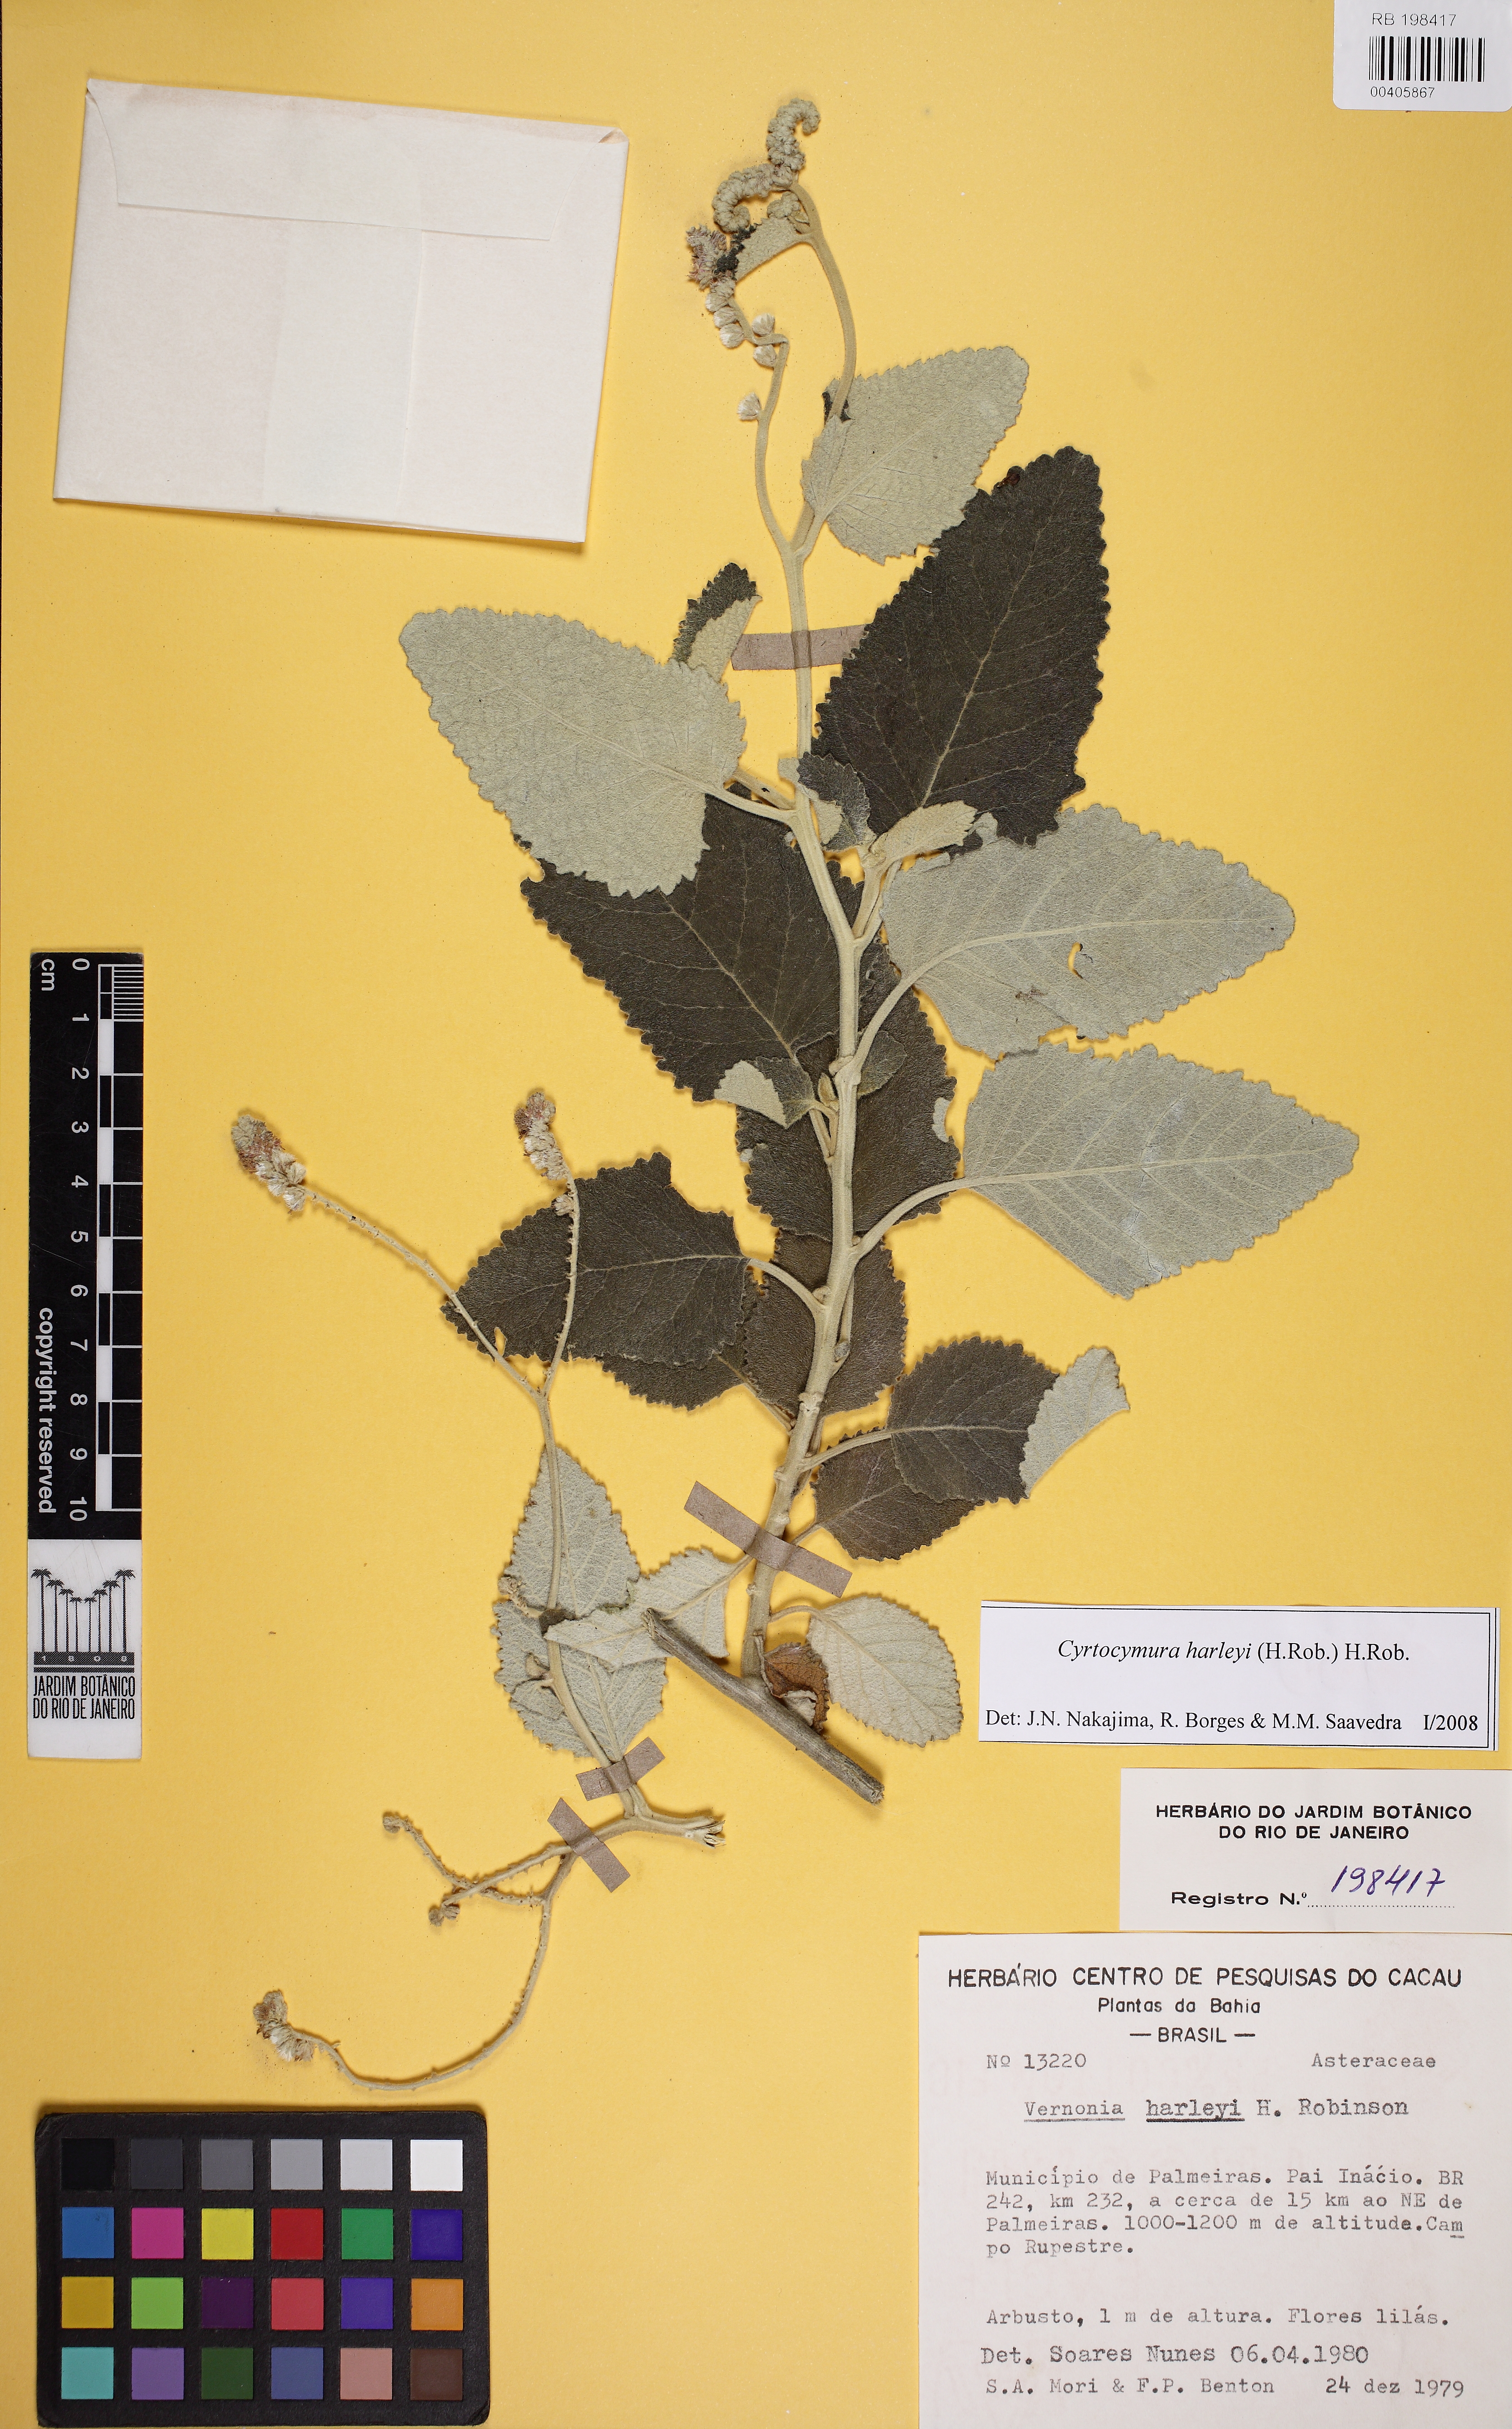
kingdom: Plantae
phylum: Tracheophyta
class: Magnoliopsida
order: Asterales
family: Asteraceae
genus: Cyrtocymura
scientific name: Cyrtocymura harleyi
